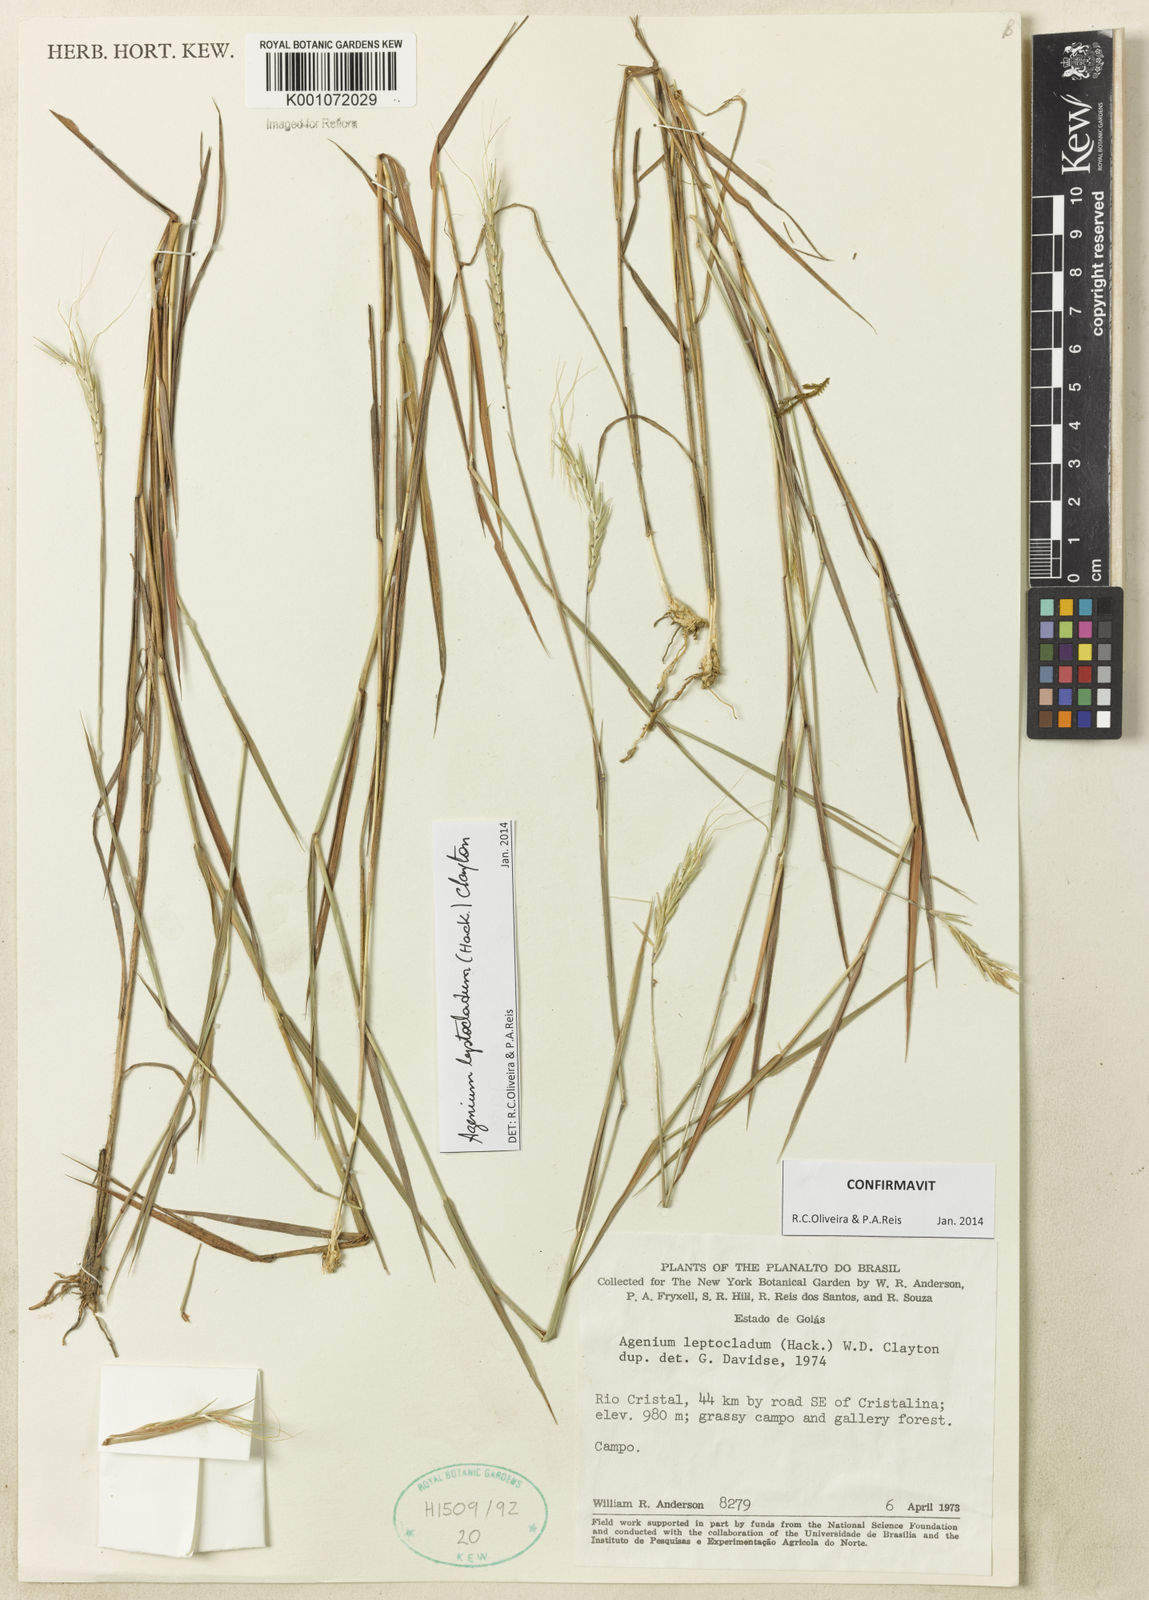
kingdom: Plantae
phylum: Tracheophyta
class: Liliopsida
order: Poales
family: Poaceae
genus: Agenium
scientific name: Agenium leptocladum
